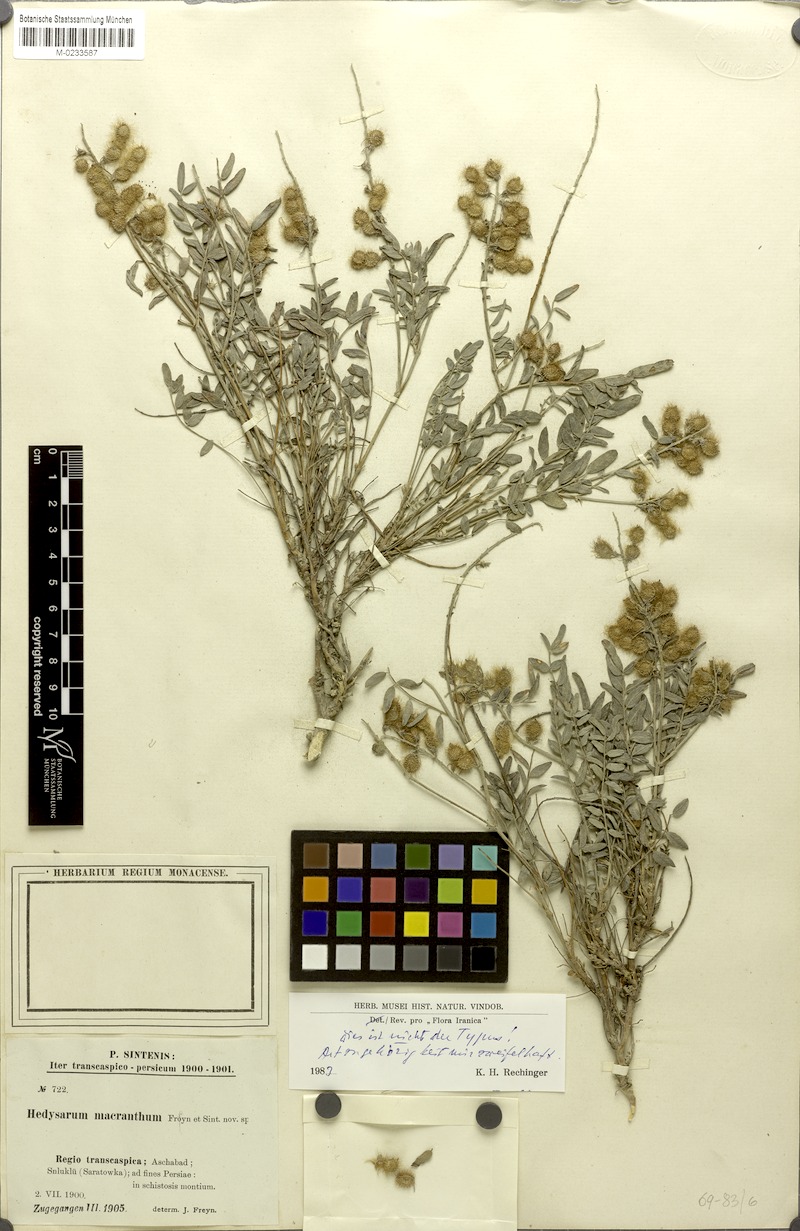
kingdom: Plantae
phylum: Tracheophyta
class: Magnoliopsida
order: Fabales
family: Fabaceae
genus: Hedysarum
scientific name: Hedysarum macranthum
